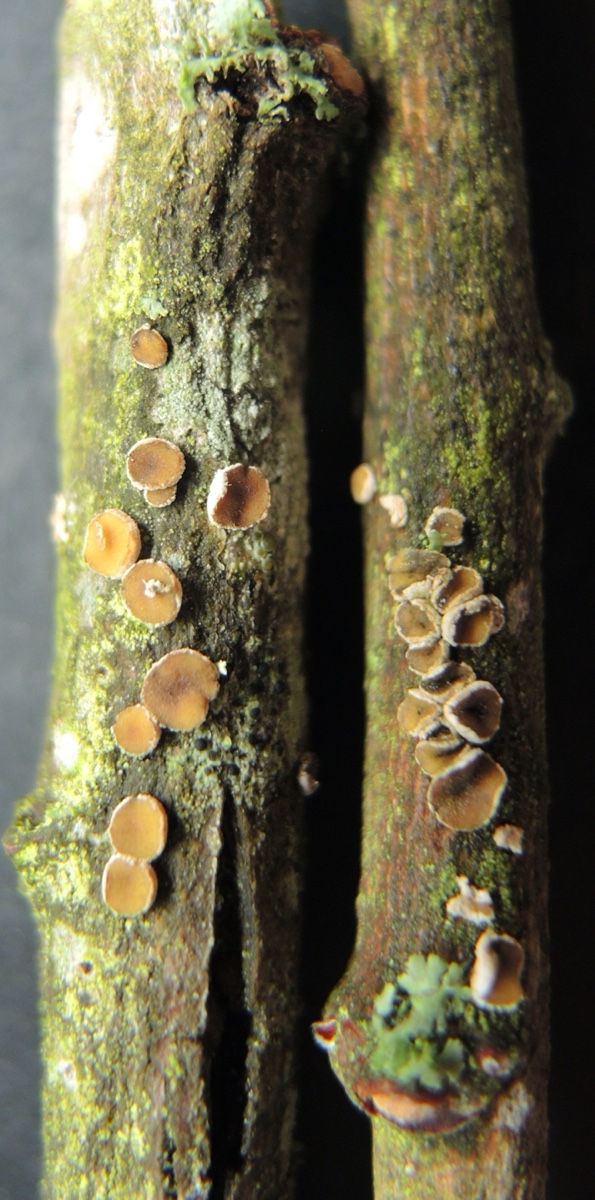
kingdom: Fungi
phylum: Ascomycota
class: Leotiomycetes
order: Helotiales
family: Cenangiaceae
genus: Velutarina
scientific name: Velutarina rufo-olivacea
